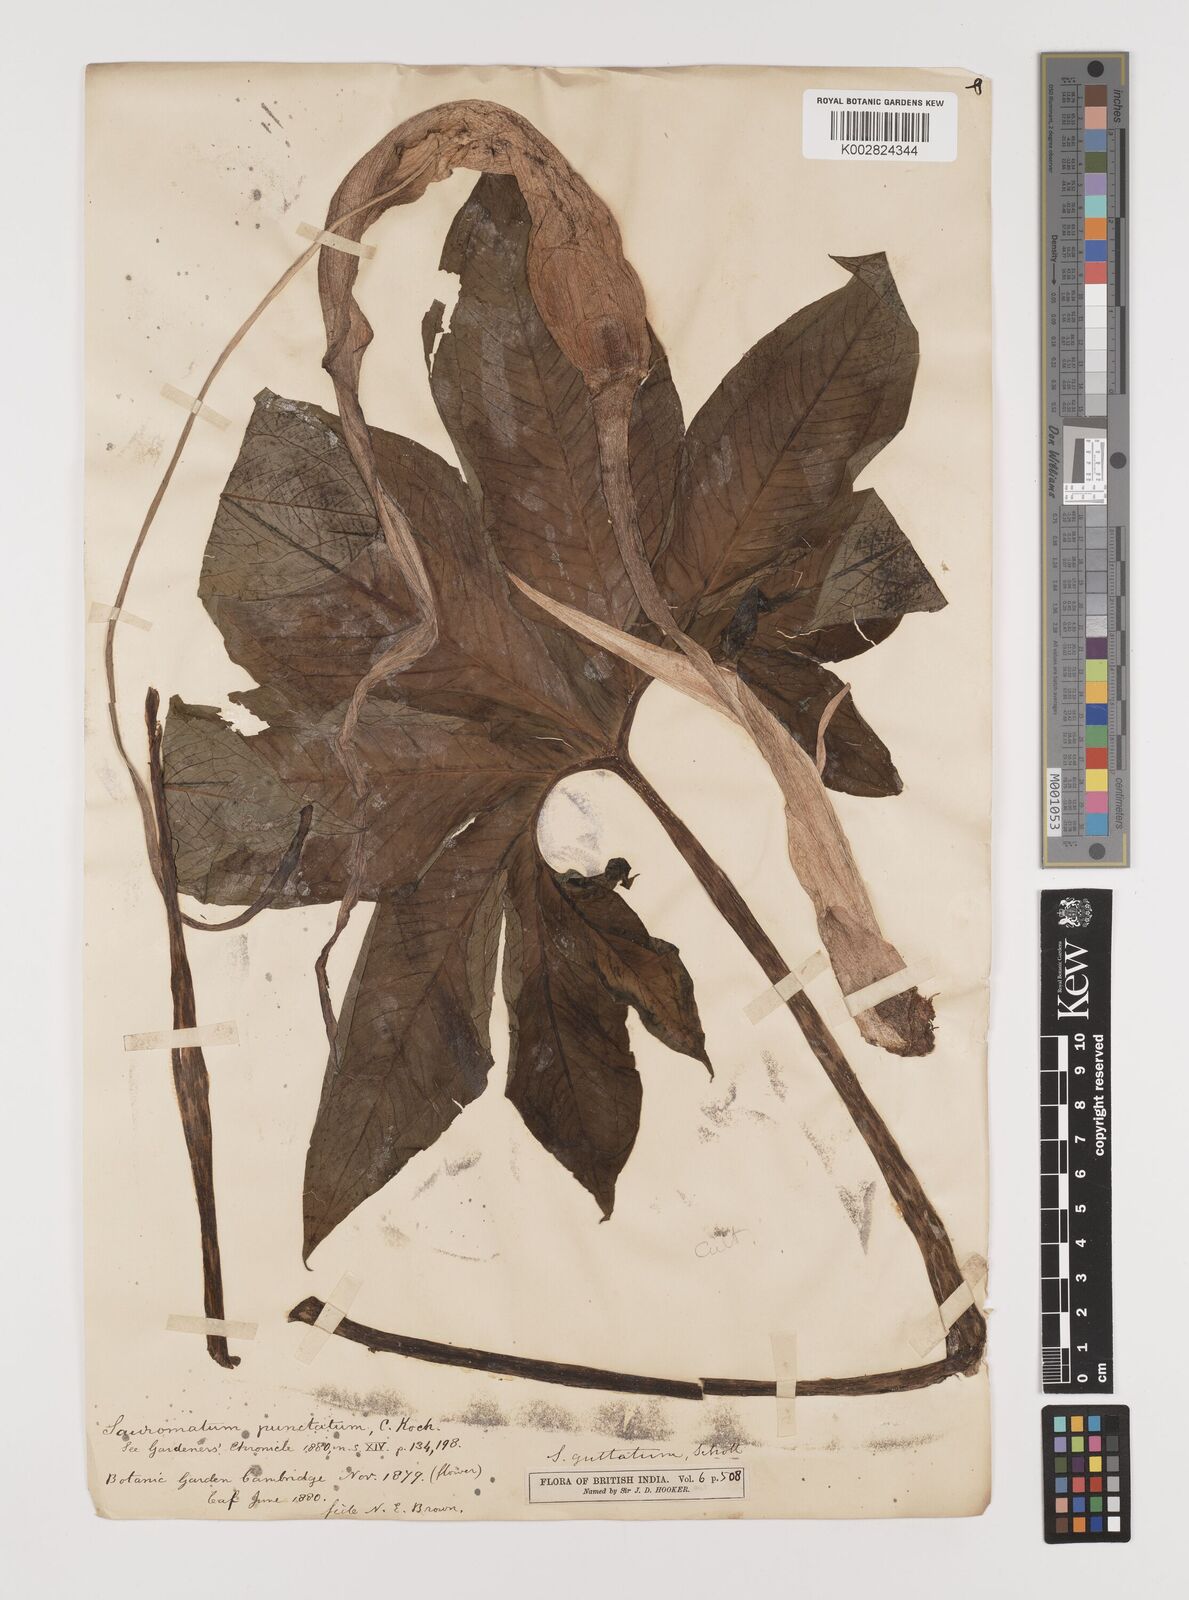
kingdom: Plantae
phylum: Tracheophyta
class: Liliopsida
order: Alismatales
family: Araceae
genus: Sauromatum
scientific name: Sauromatum venosum
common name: Voodoo lily
